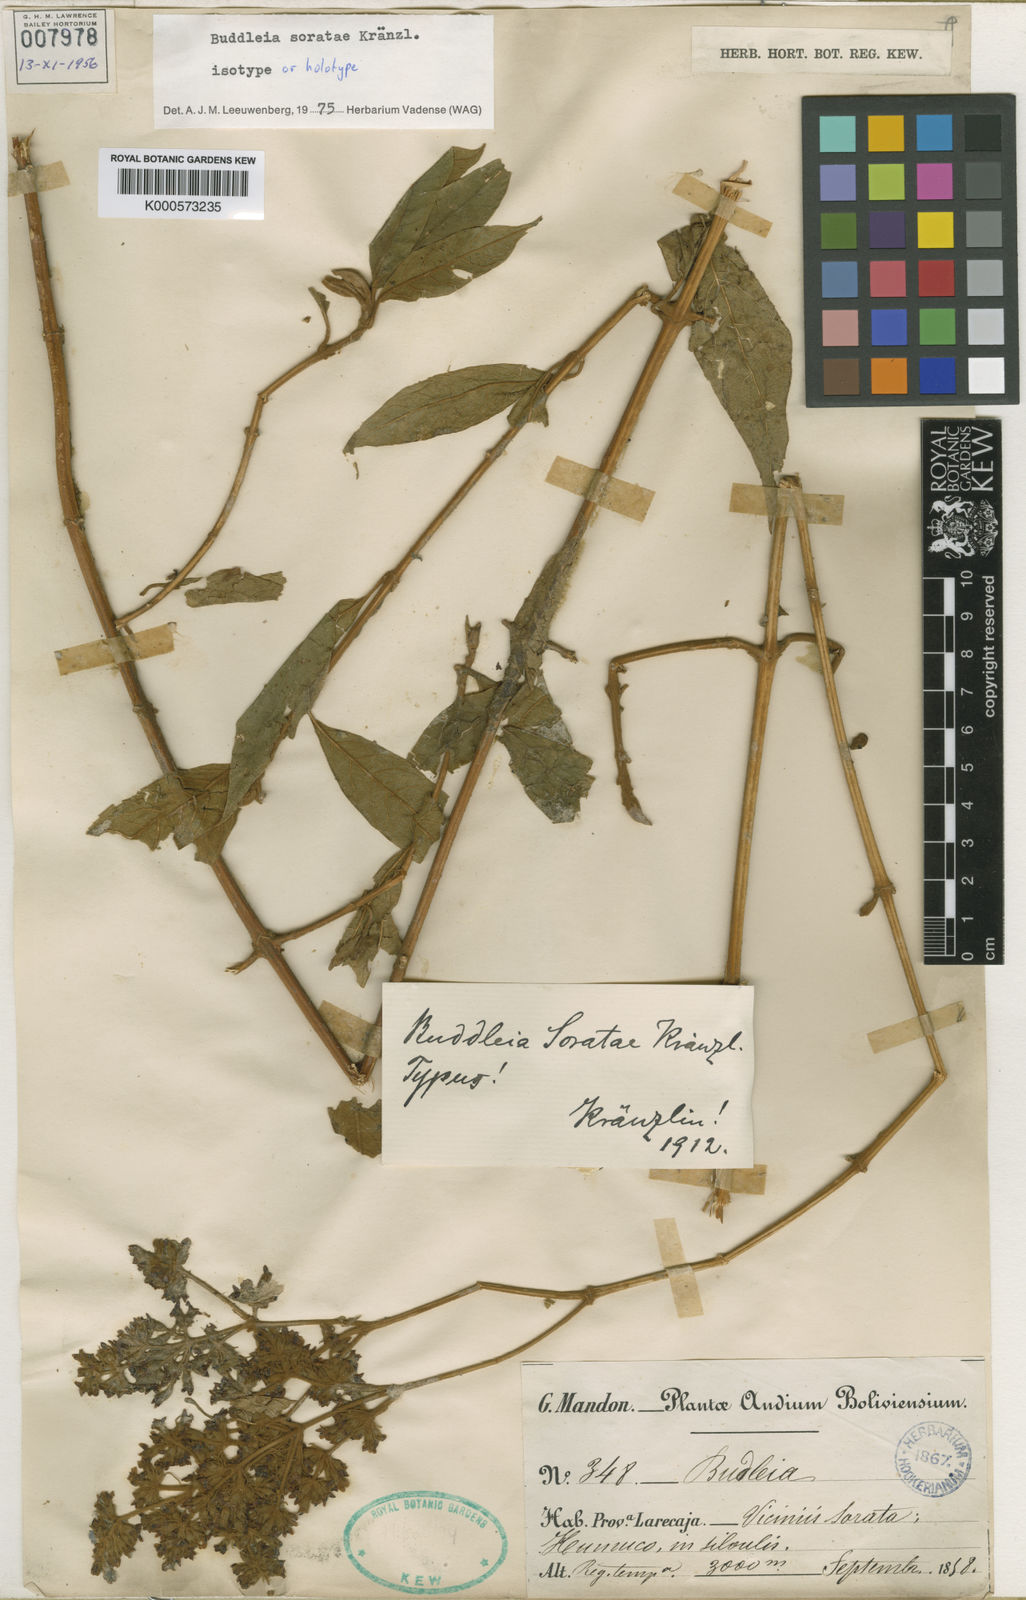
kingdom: Plantae
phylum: Tracheophyta
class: Magnoliopsida
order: Lamiales
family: Scrophulariaceae
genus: Buddleja
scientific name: Buddleja soratae
